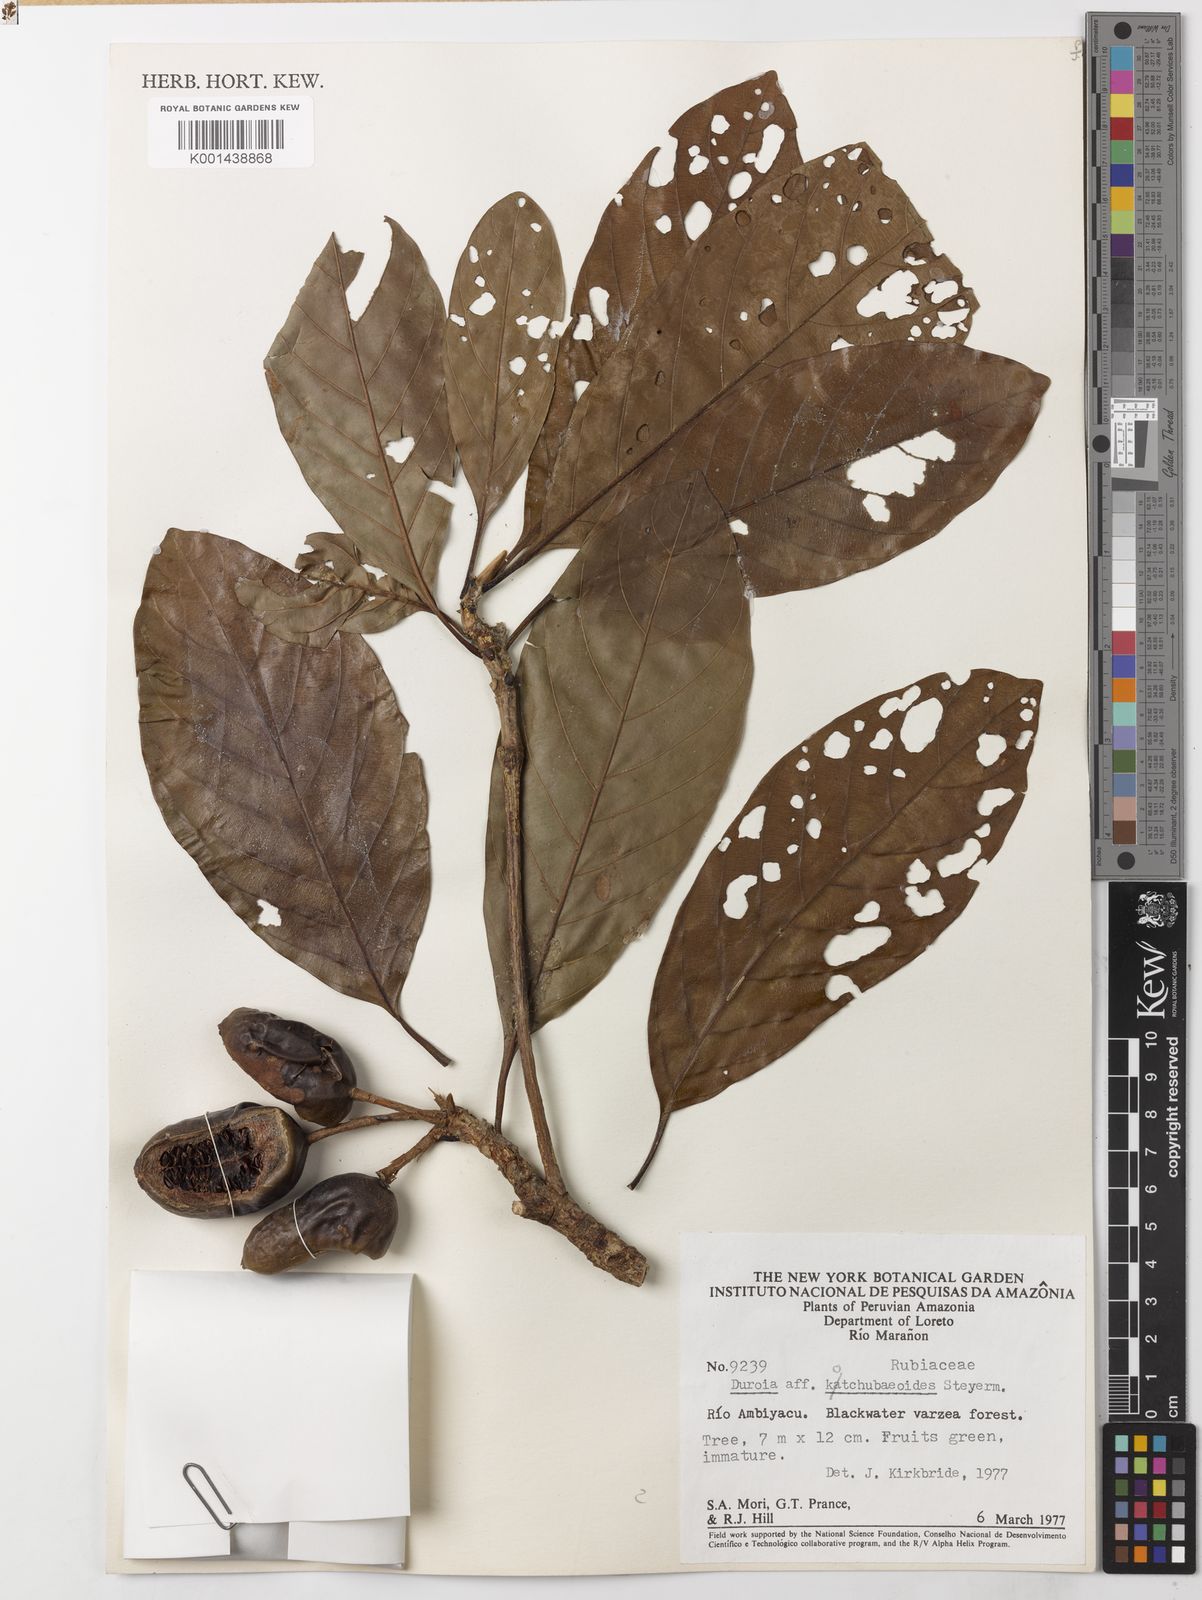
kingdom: Plantae
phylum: Tracheophyta
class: Magnoliopsida
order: Gentianales
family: Rubiaceae
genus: Duroia
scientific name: Duroia
